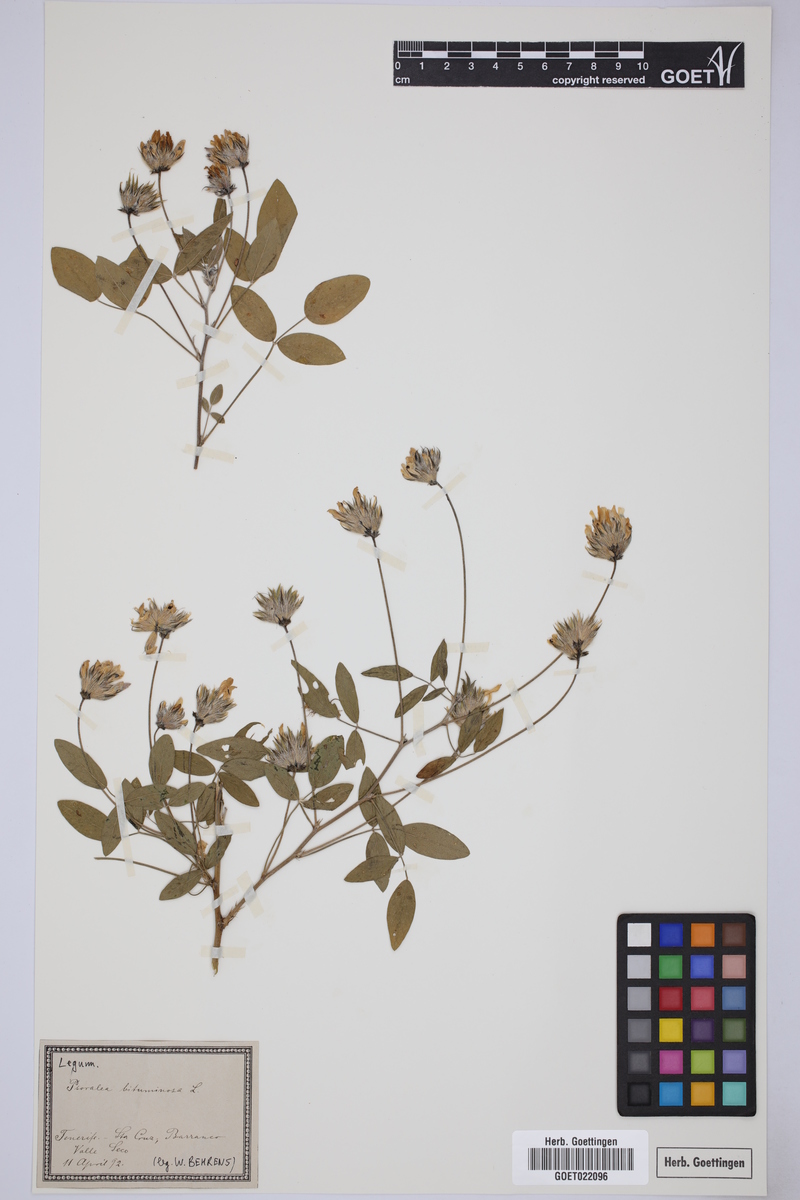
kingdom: Plantae
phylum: Tracheophyta
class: Magnoliopsida
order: Fabales
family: Fabaceae
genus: Bituminaria
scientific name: Bituminaria bituminosa
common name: Arabian pea
